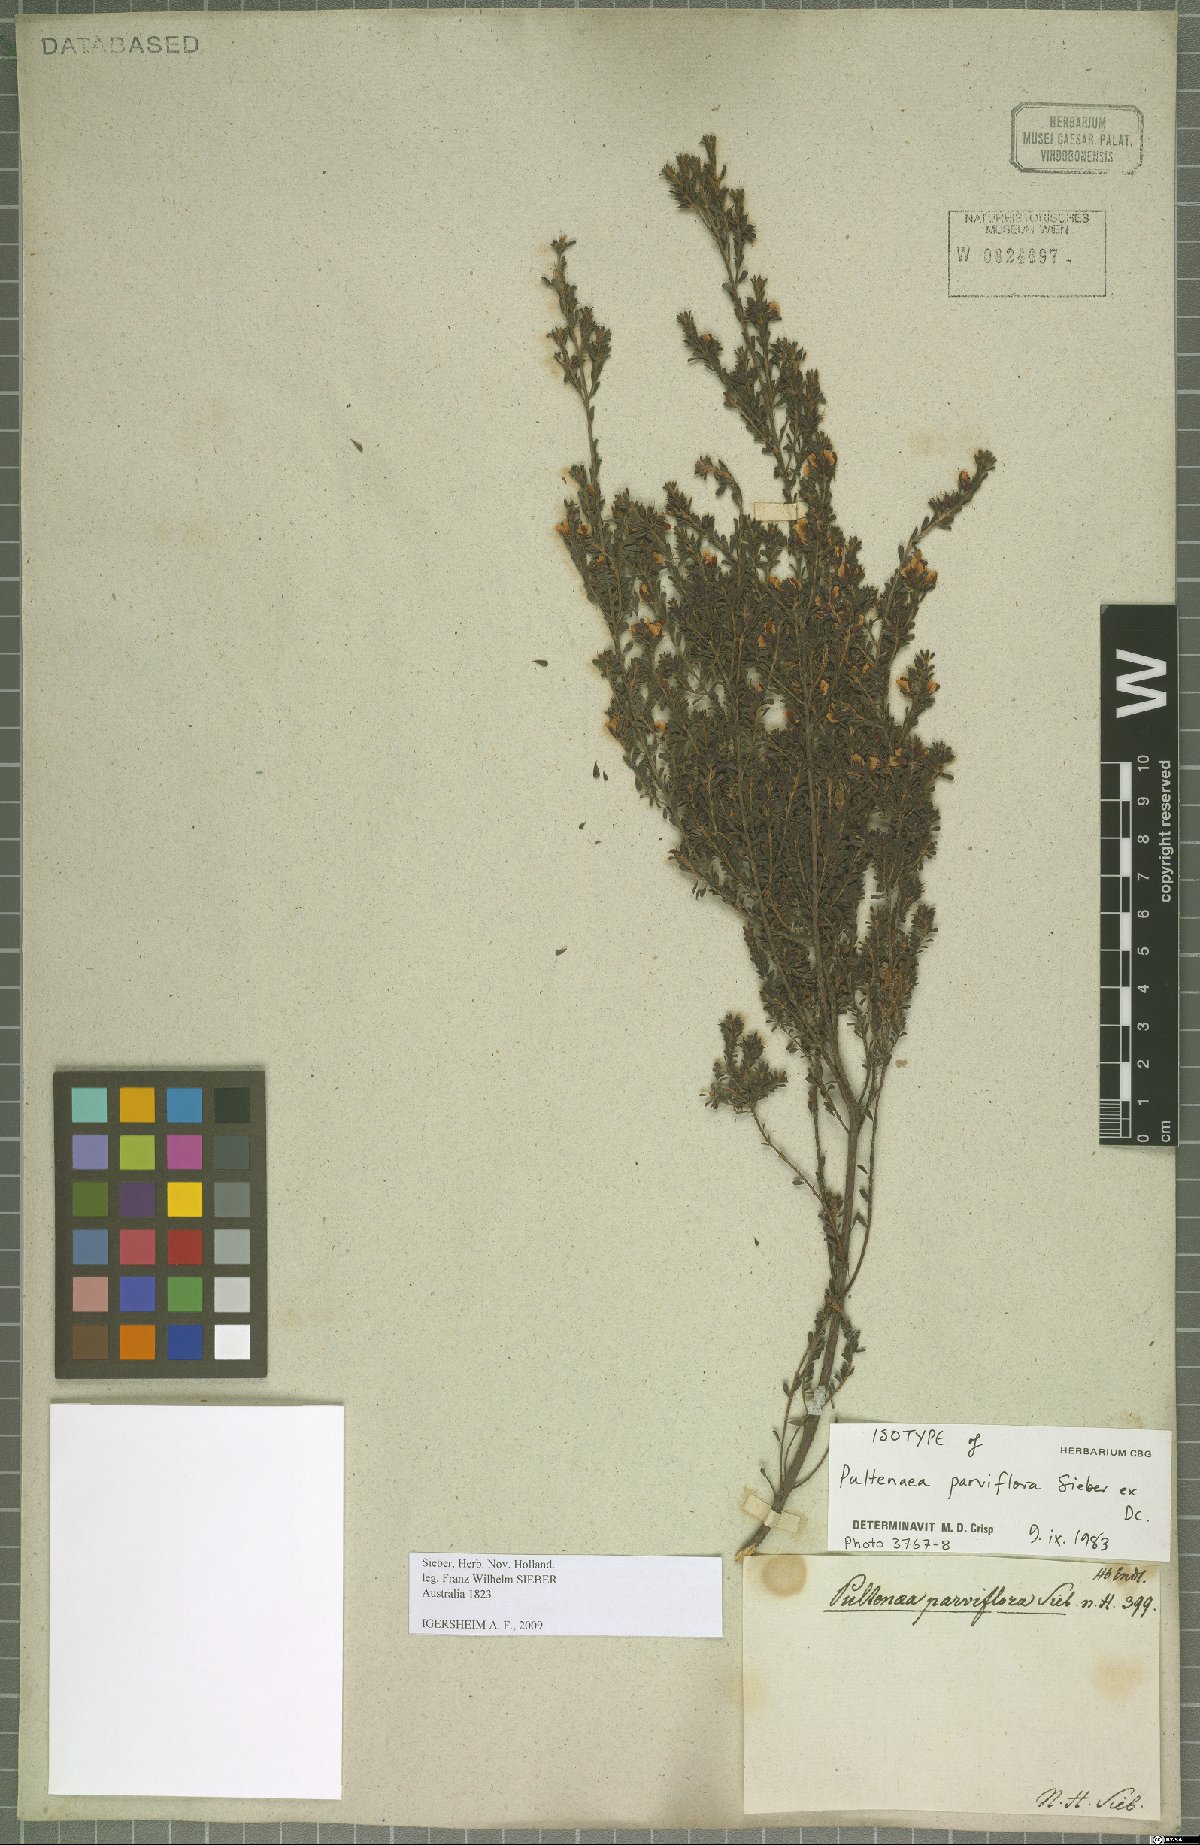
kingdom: Plantae
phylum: Tracheophyta
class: Magnoliopsida
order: Fabales
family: Fabaceae
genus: Pultenaea
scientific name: Pultenaea parviflora
